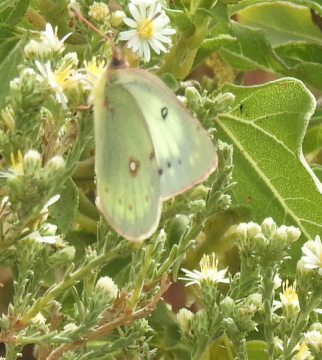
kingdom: Animalia
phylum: Arthropoda
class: Insecta
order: Lepidoptera
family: Pieridae
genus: Colias
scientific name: Colias philodice
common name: Clouded Sulphur
